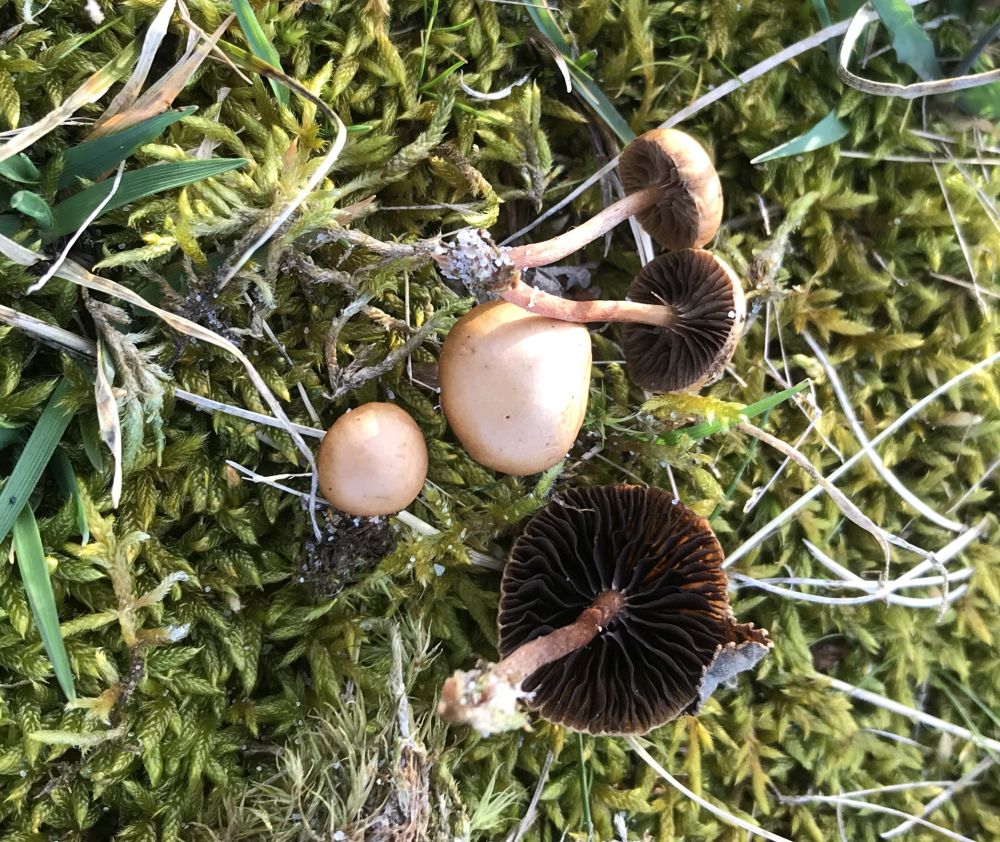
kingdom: Fungi
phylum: Basidiomycota
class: Agaricomycetes
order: Agaricales
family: Strophariaceae
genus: Deconica
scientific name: Deconica montana
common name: rødbrun stråhat
